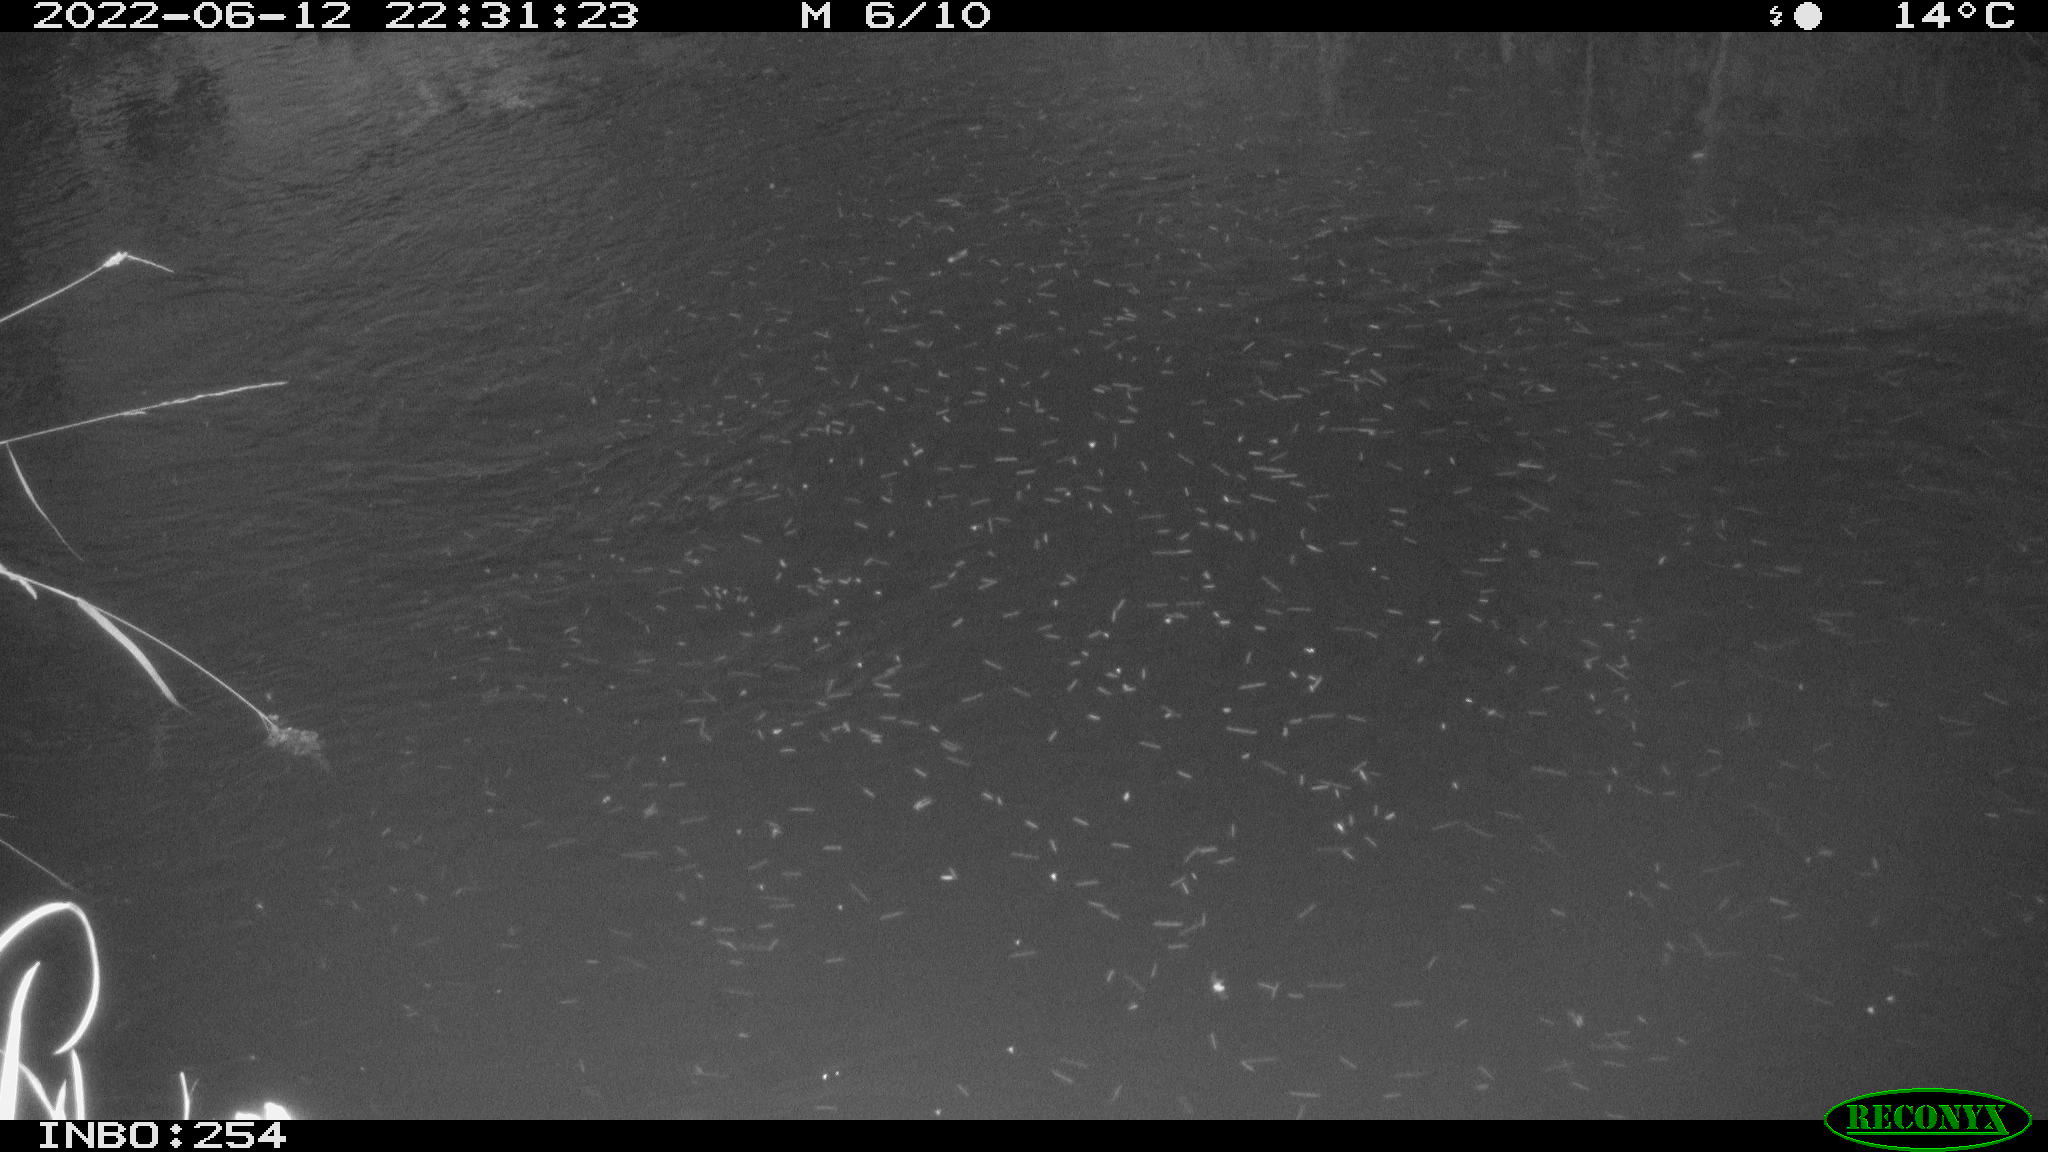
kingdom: Animalia
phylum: Chordata
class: Aves
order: Anseriformes
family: Anatidae
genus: Anas
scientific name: Anas platyrhynchos
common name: Mallard
